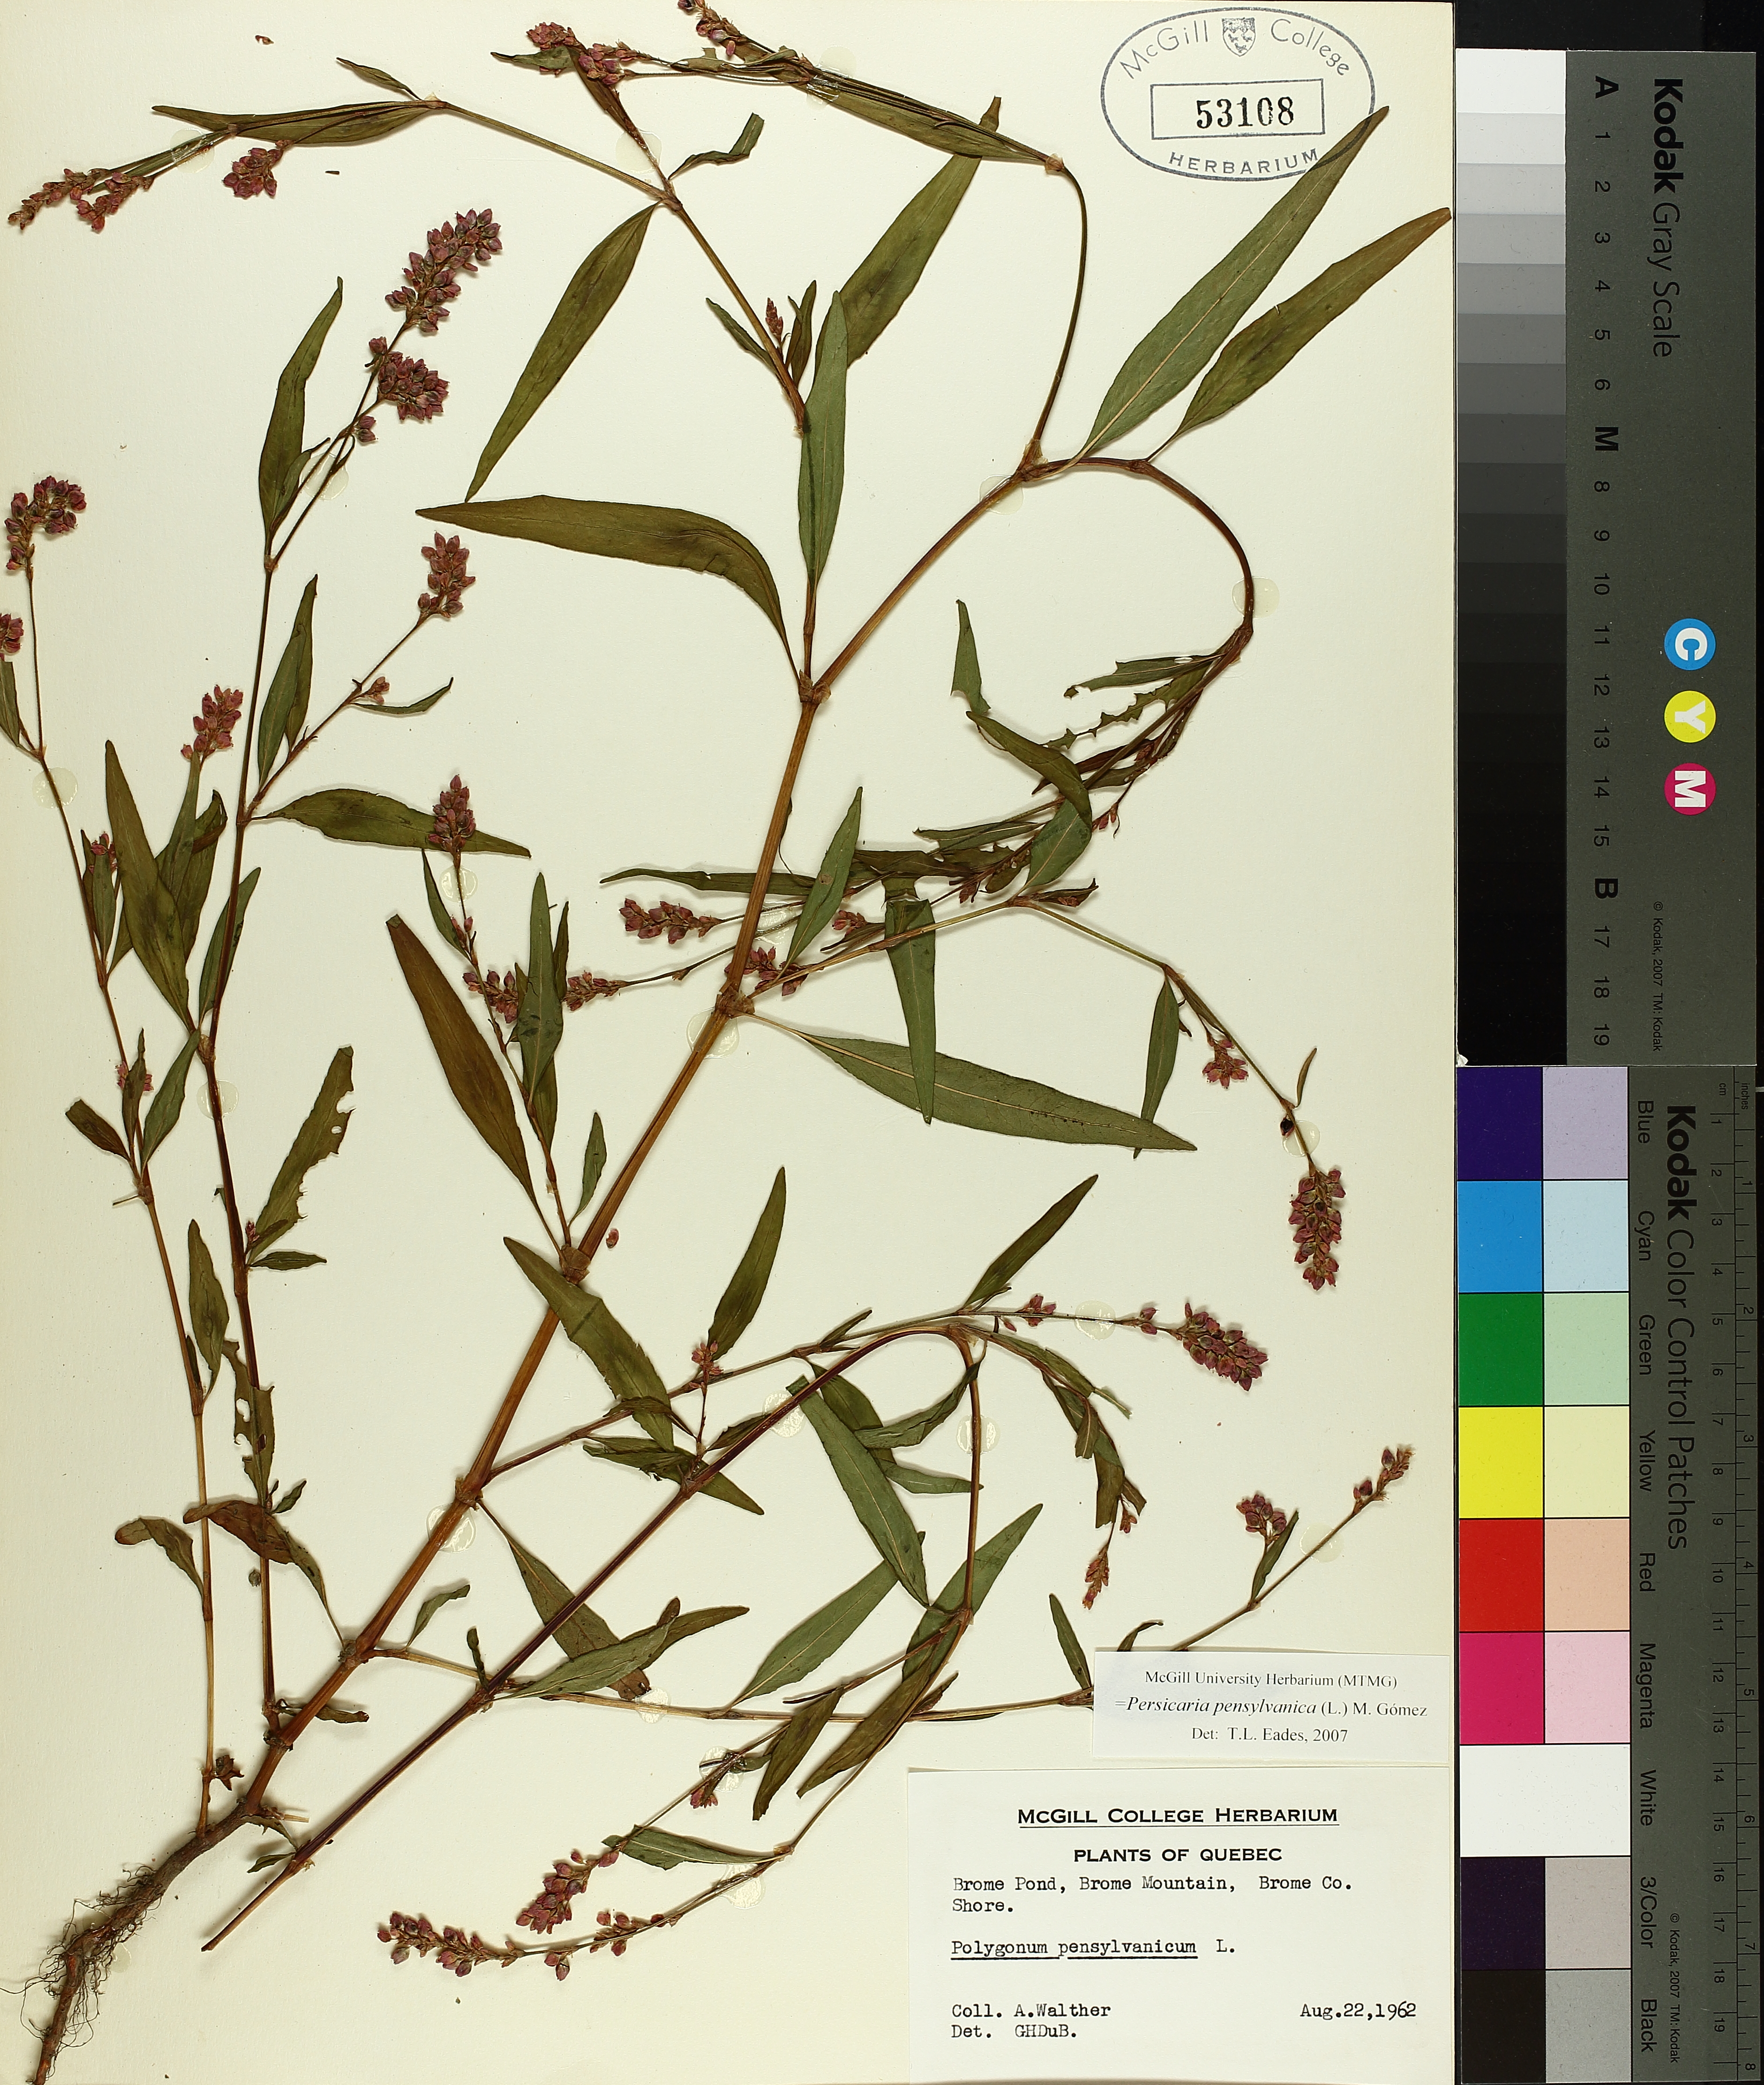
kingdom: Plantae
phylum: Tracheophyta
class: Magnoliopsida
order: Caryophyllales
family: Polygonaceae
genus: Persicaria
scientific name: Persicaria bungeana
